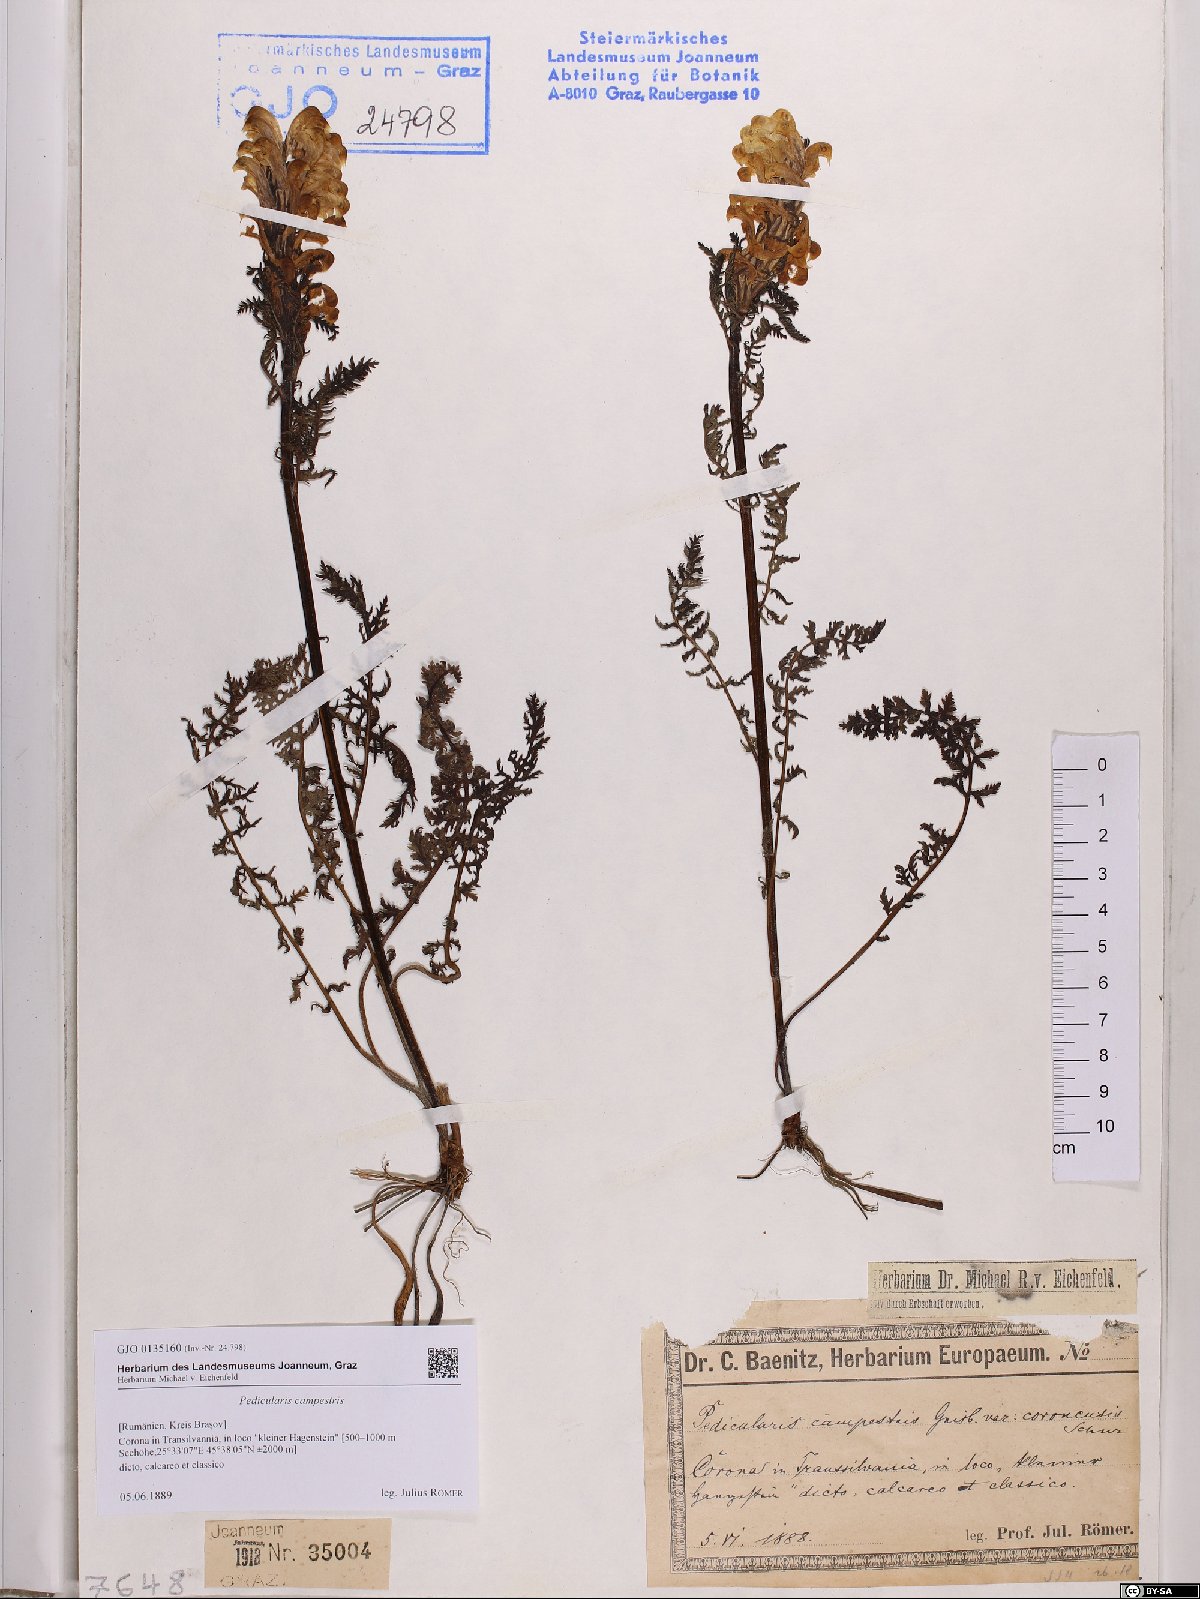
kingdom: Plantae
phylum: Tracheophyta
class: Magnoliopsida
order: Lamiales
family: Orobanchaceae
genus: Pedicularis
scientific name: Pedicularis comosa
